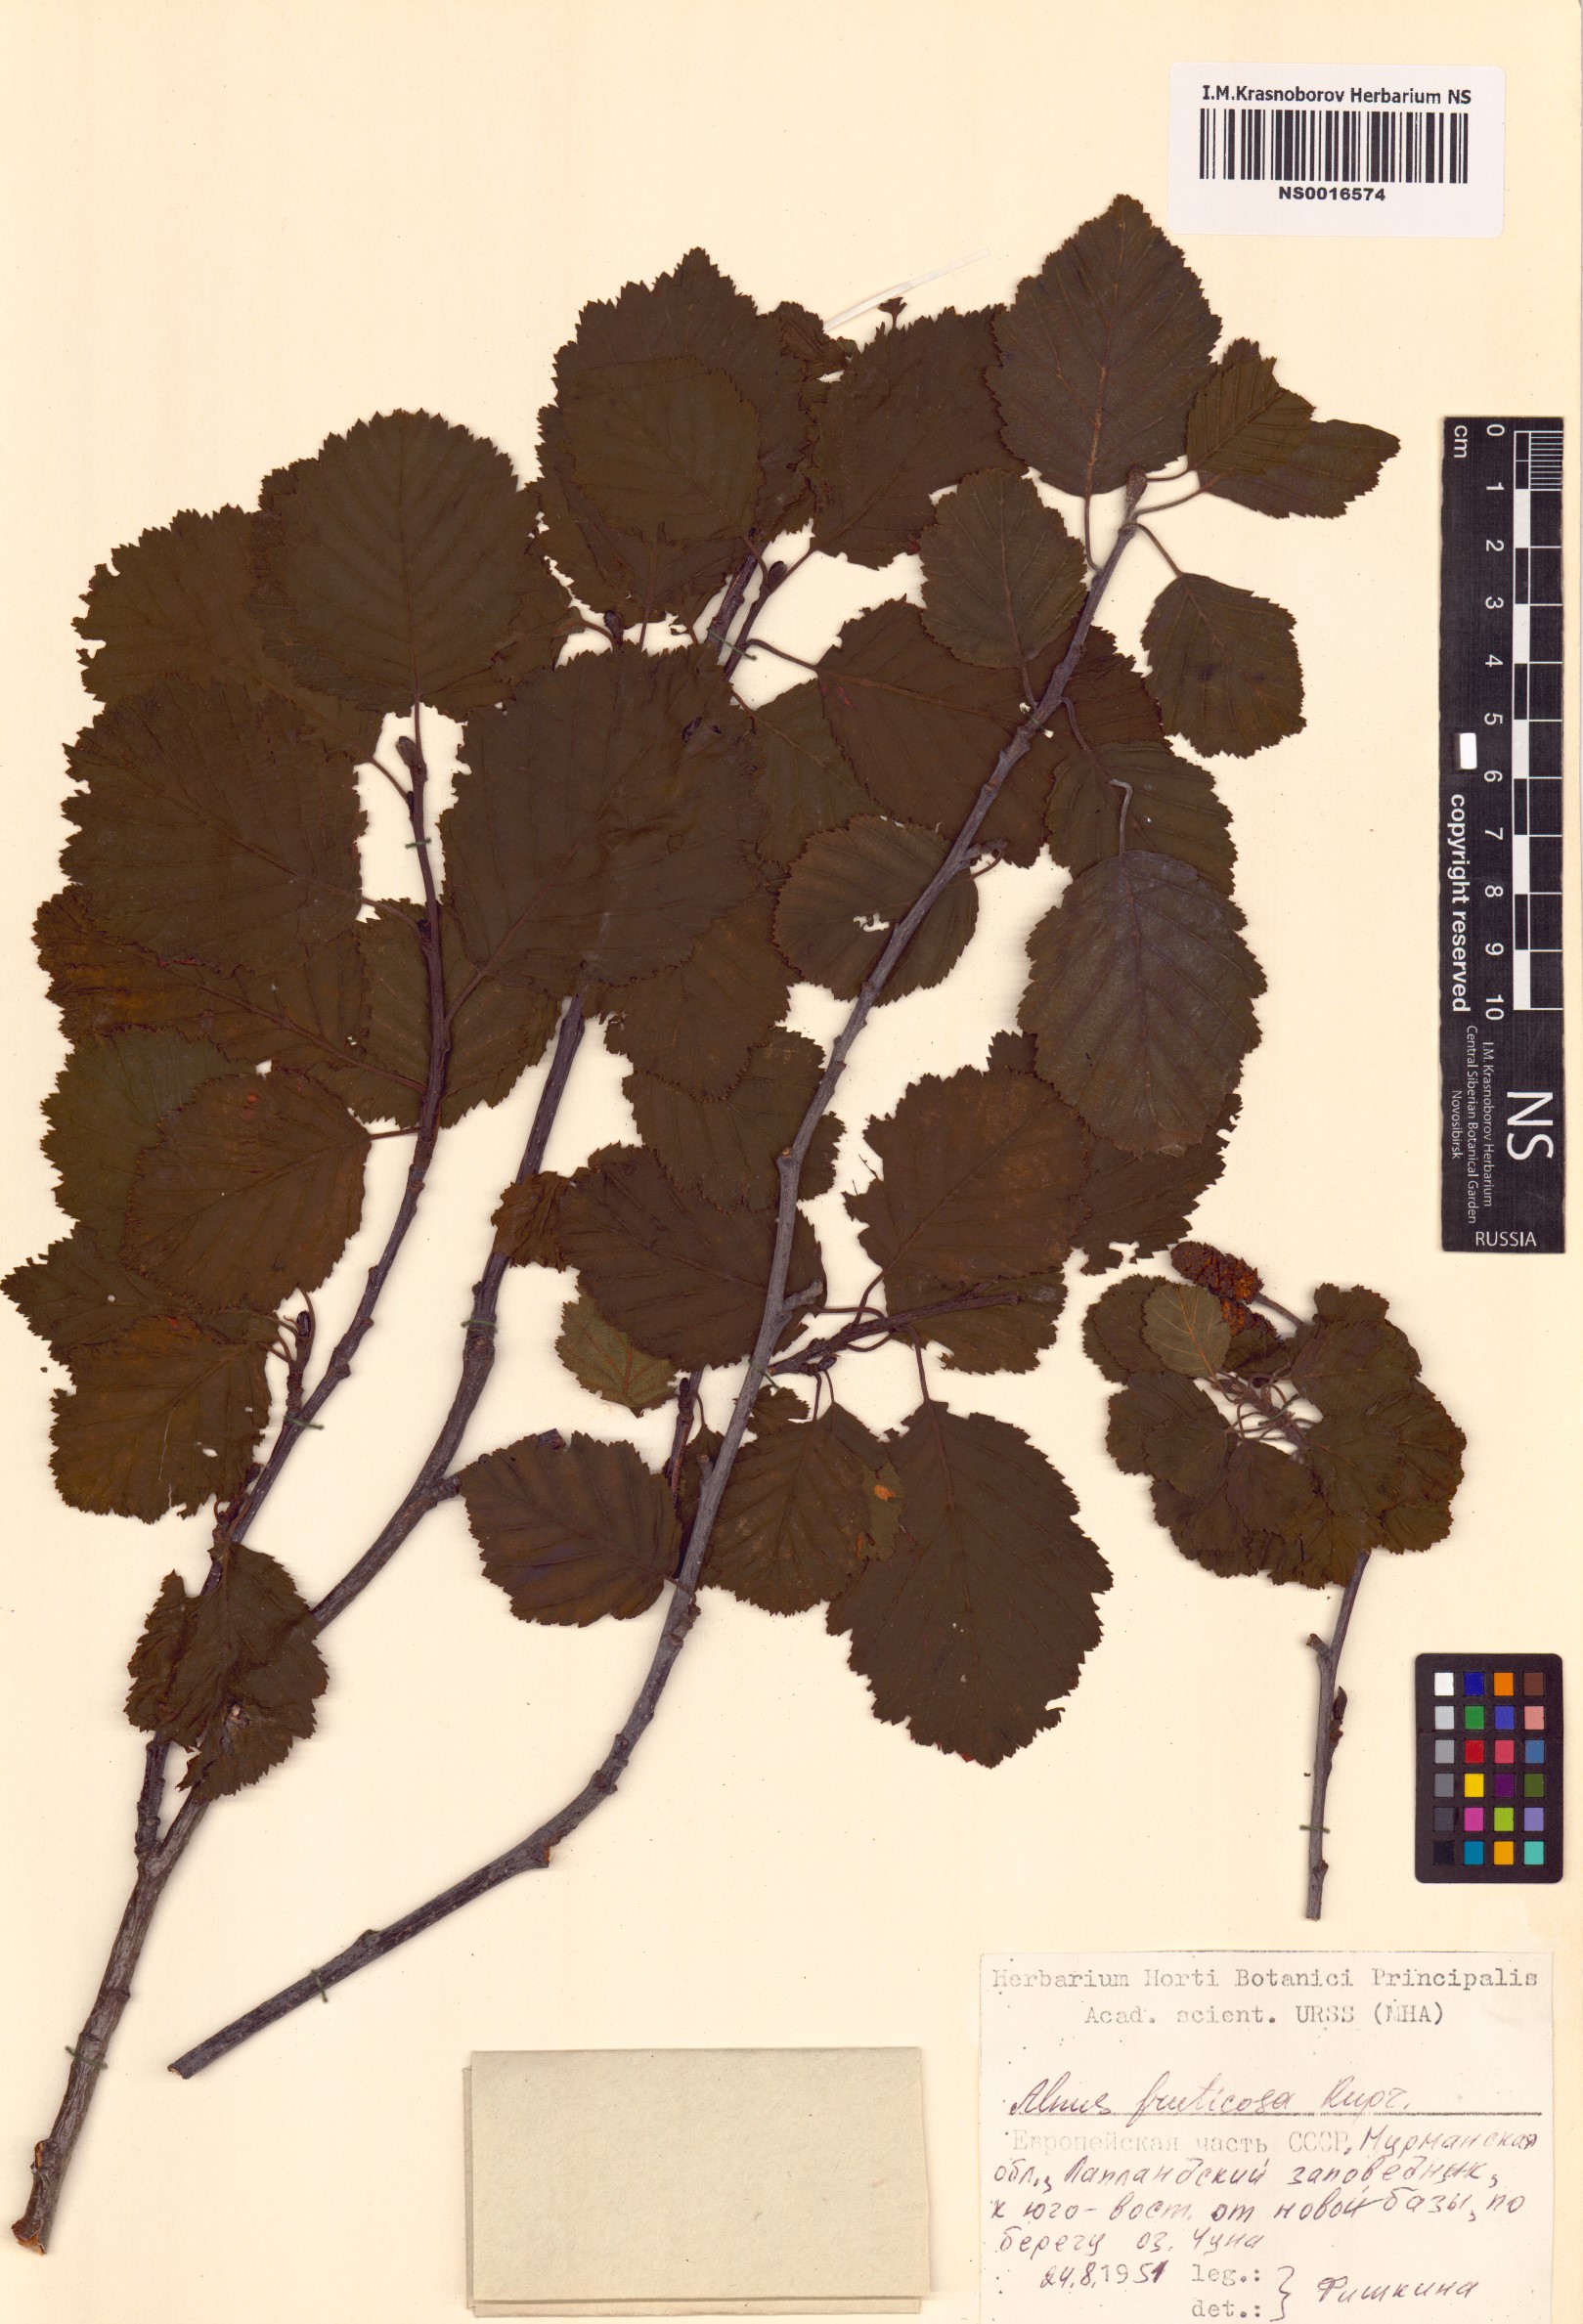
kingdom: Plantae
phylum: Tracheophyta
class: Magnoliopsida
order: Fagales
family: Betulaceae
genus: Alnus
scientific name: Alnus alnobetula
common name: Green alder
